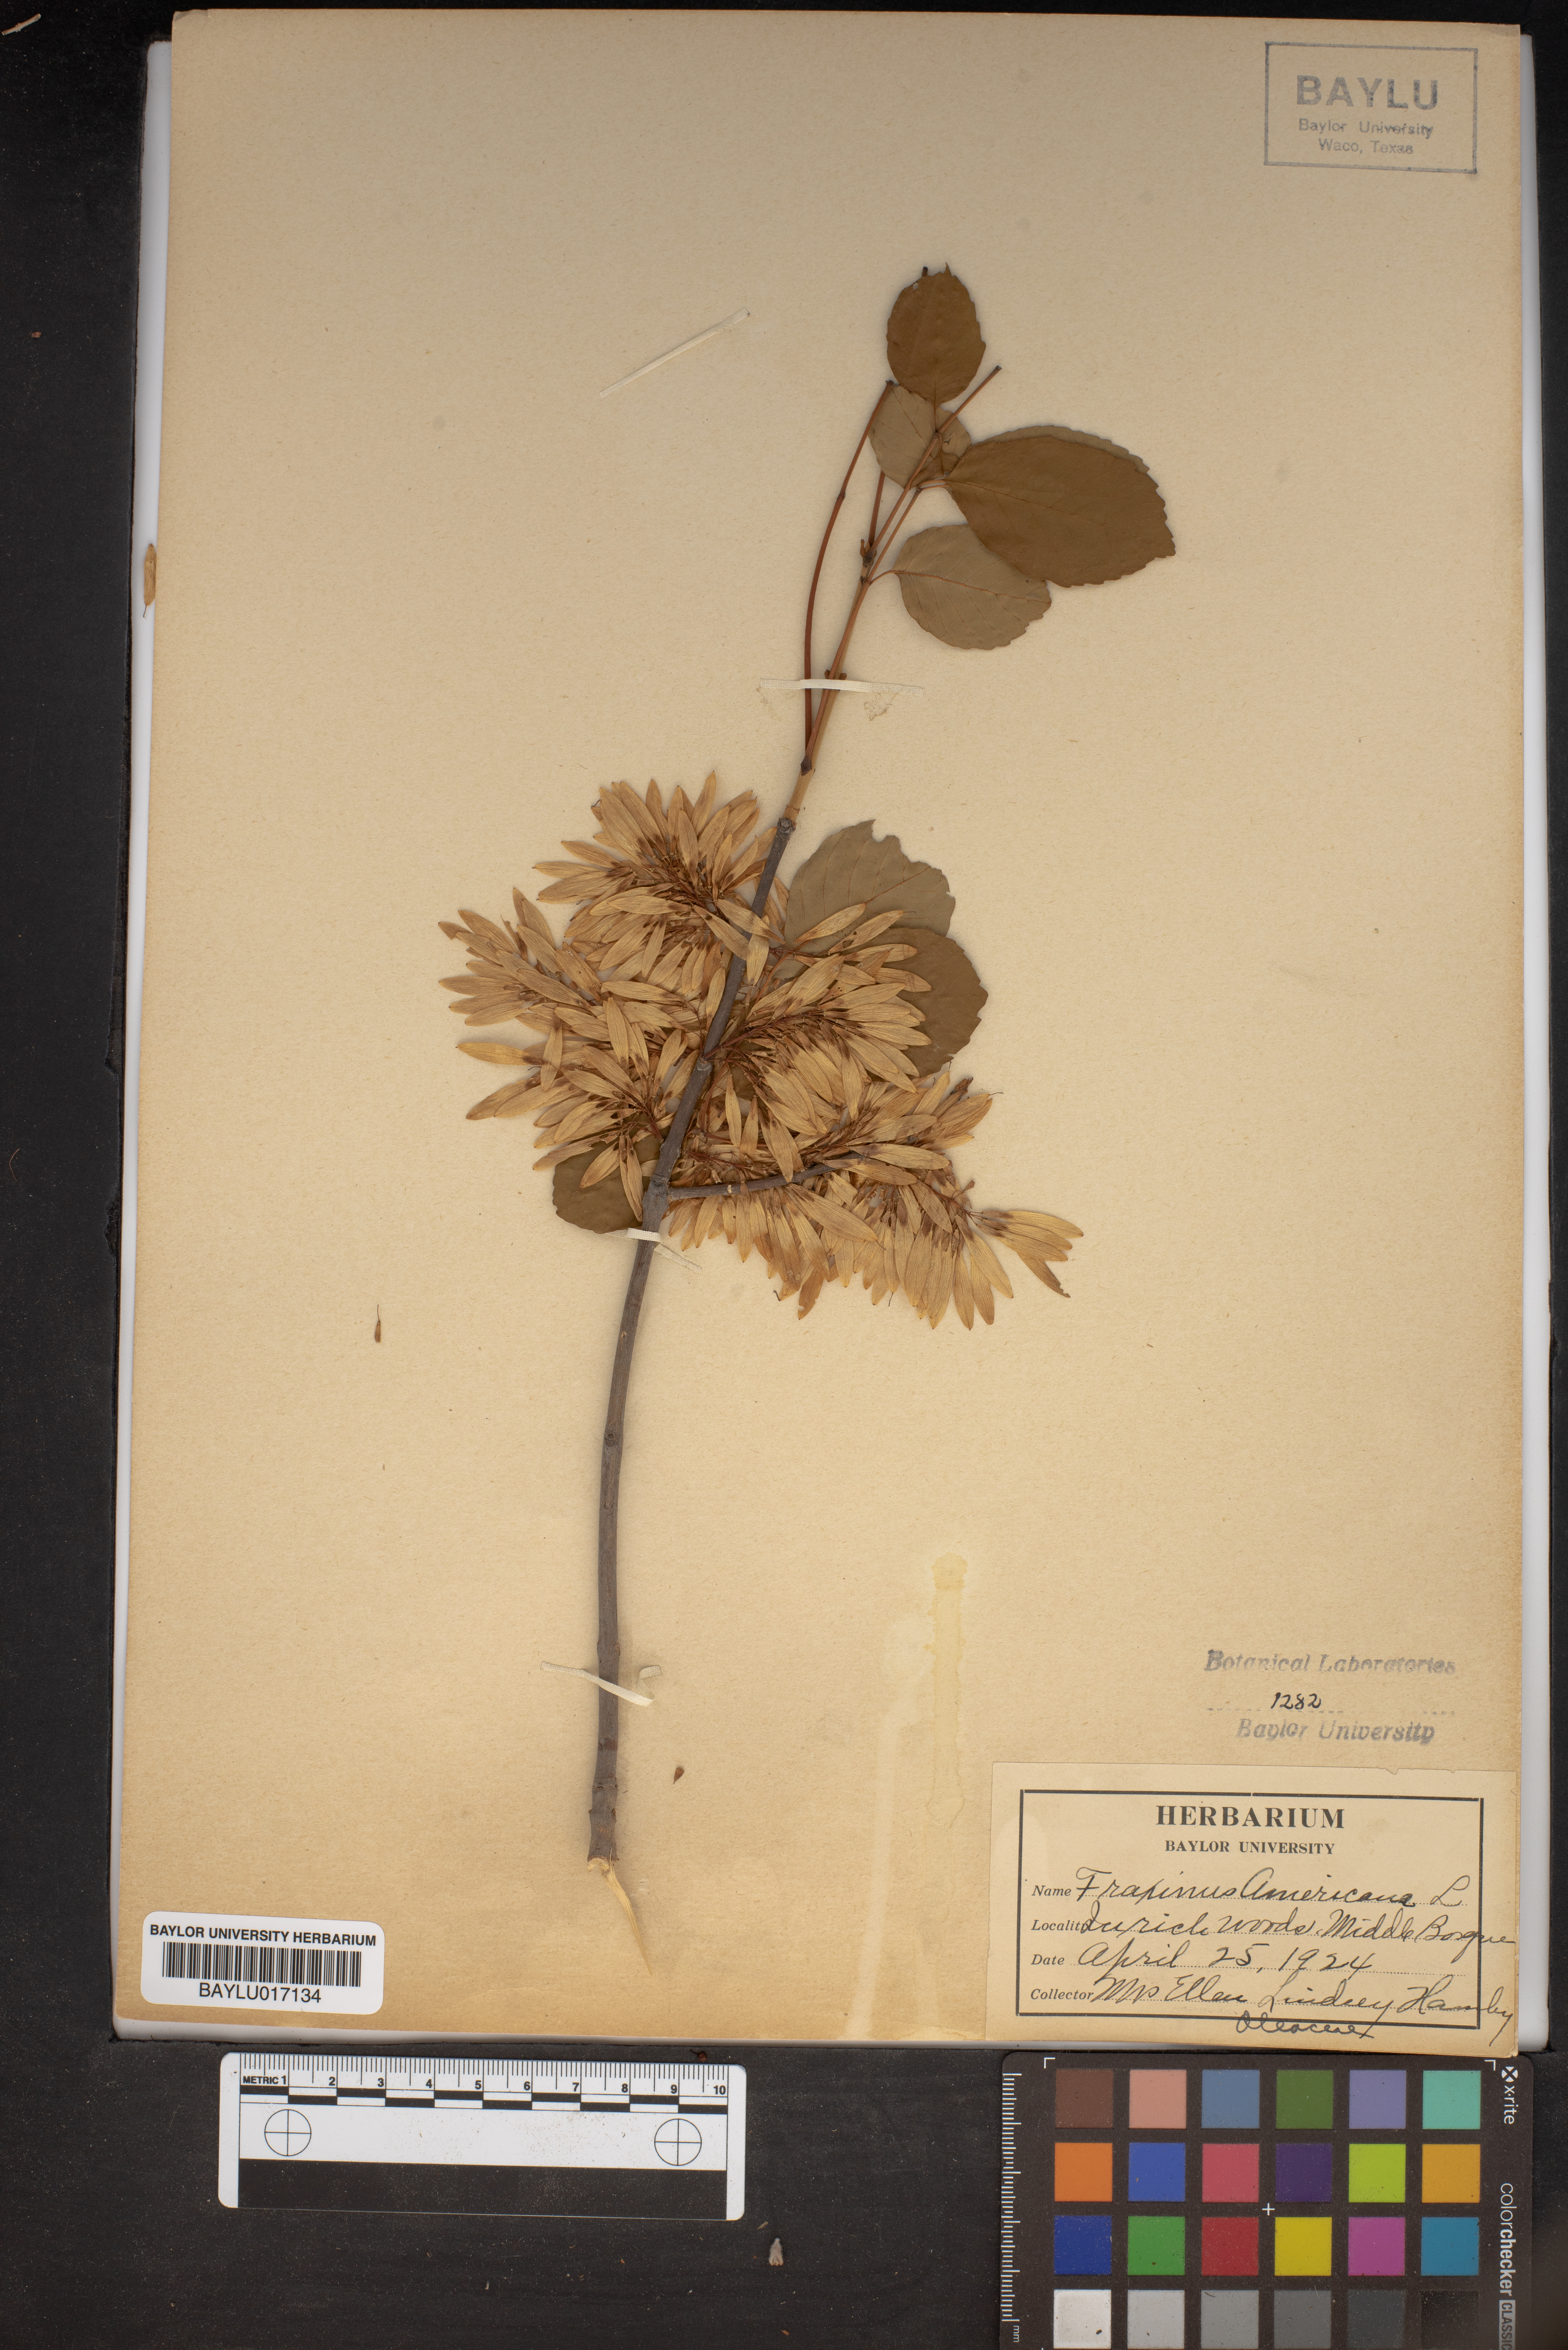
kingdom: Plantae
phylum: Tracheophyta
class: Magnoliopsida
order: Lamiales
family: Oleaceae
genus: Fraxinus
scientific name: Fraxinus americana
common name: White ash
